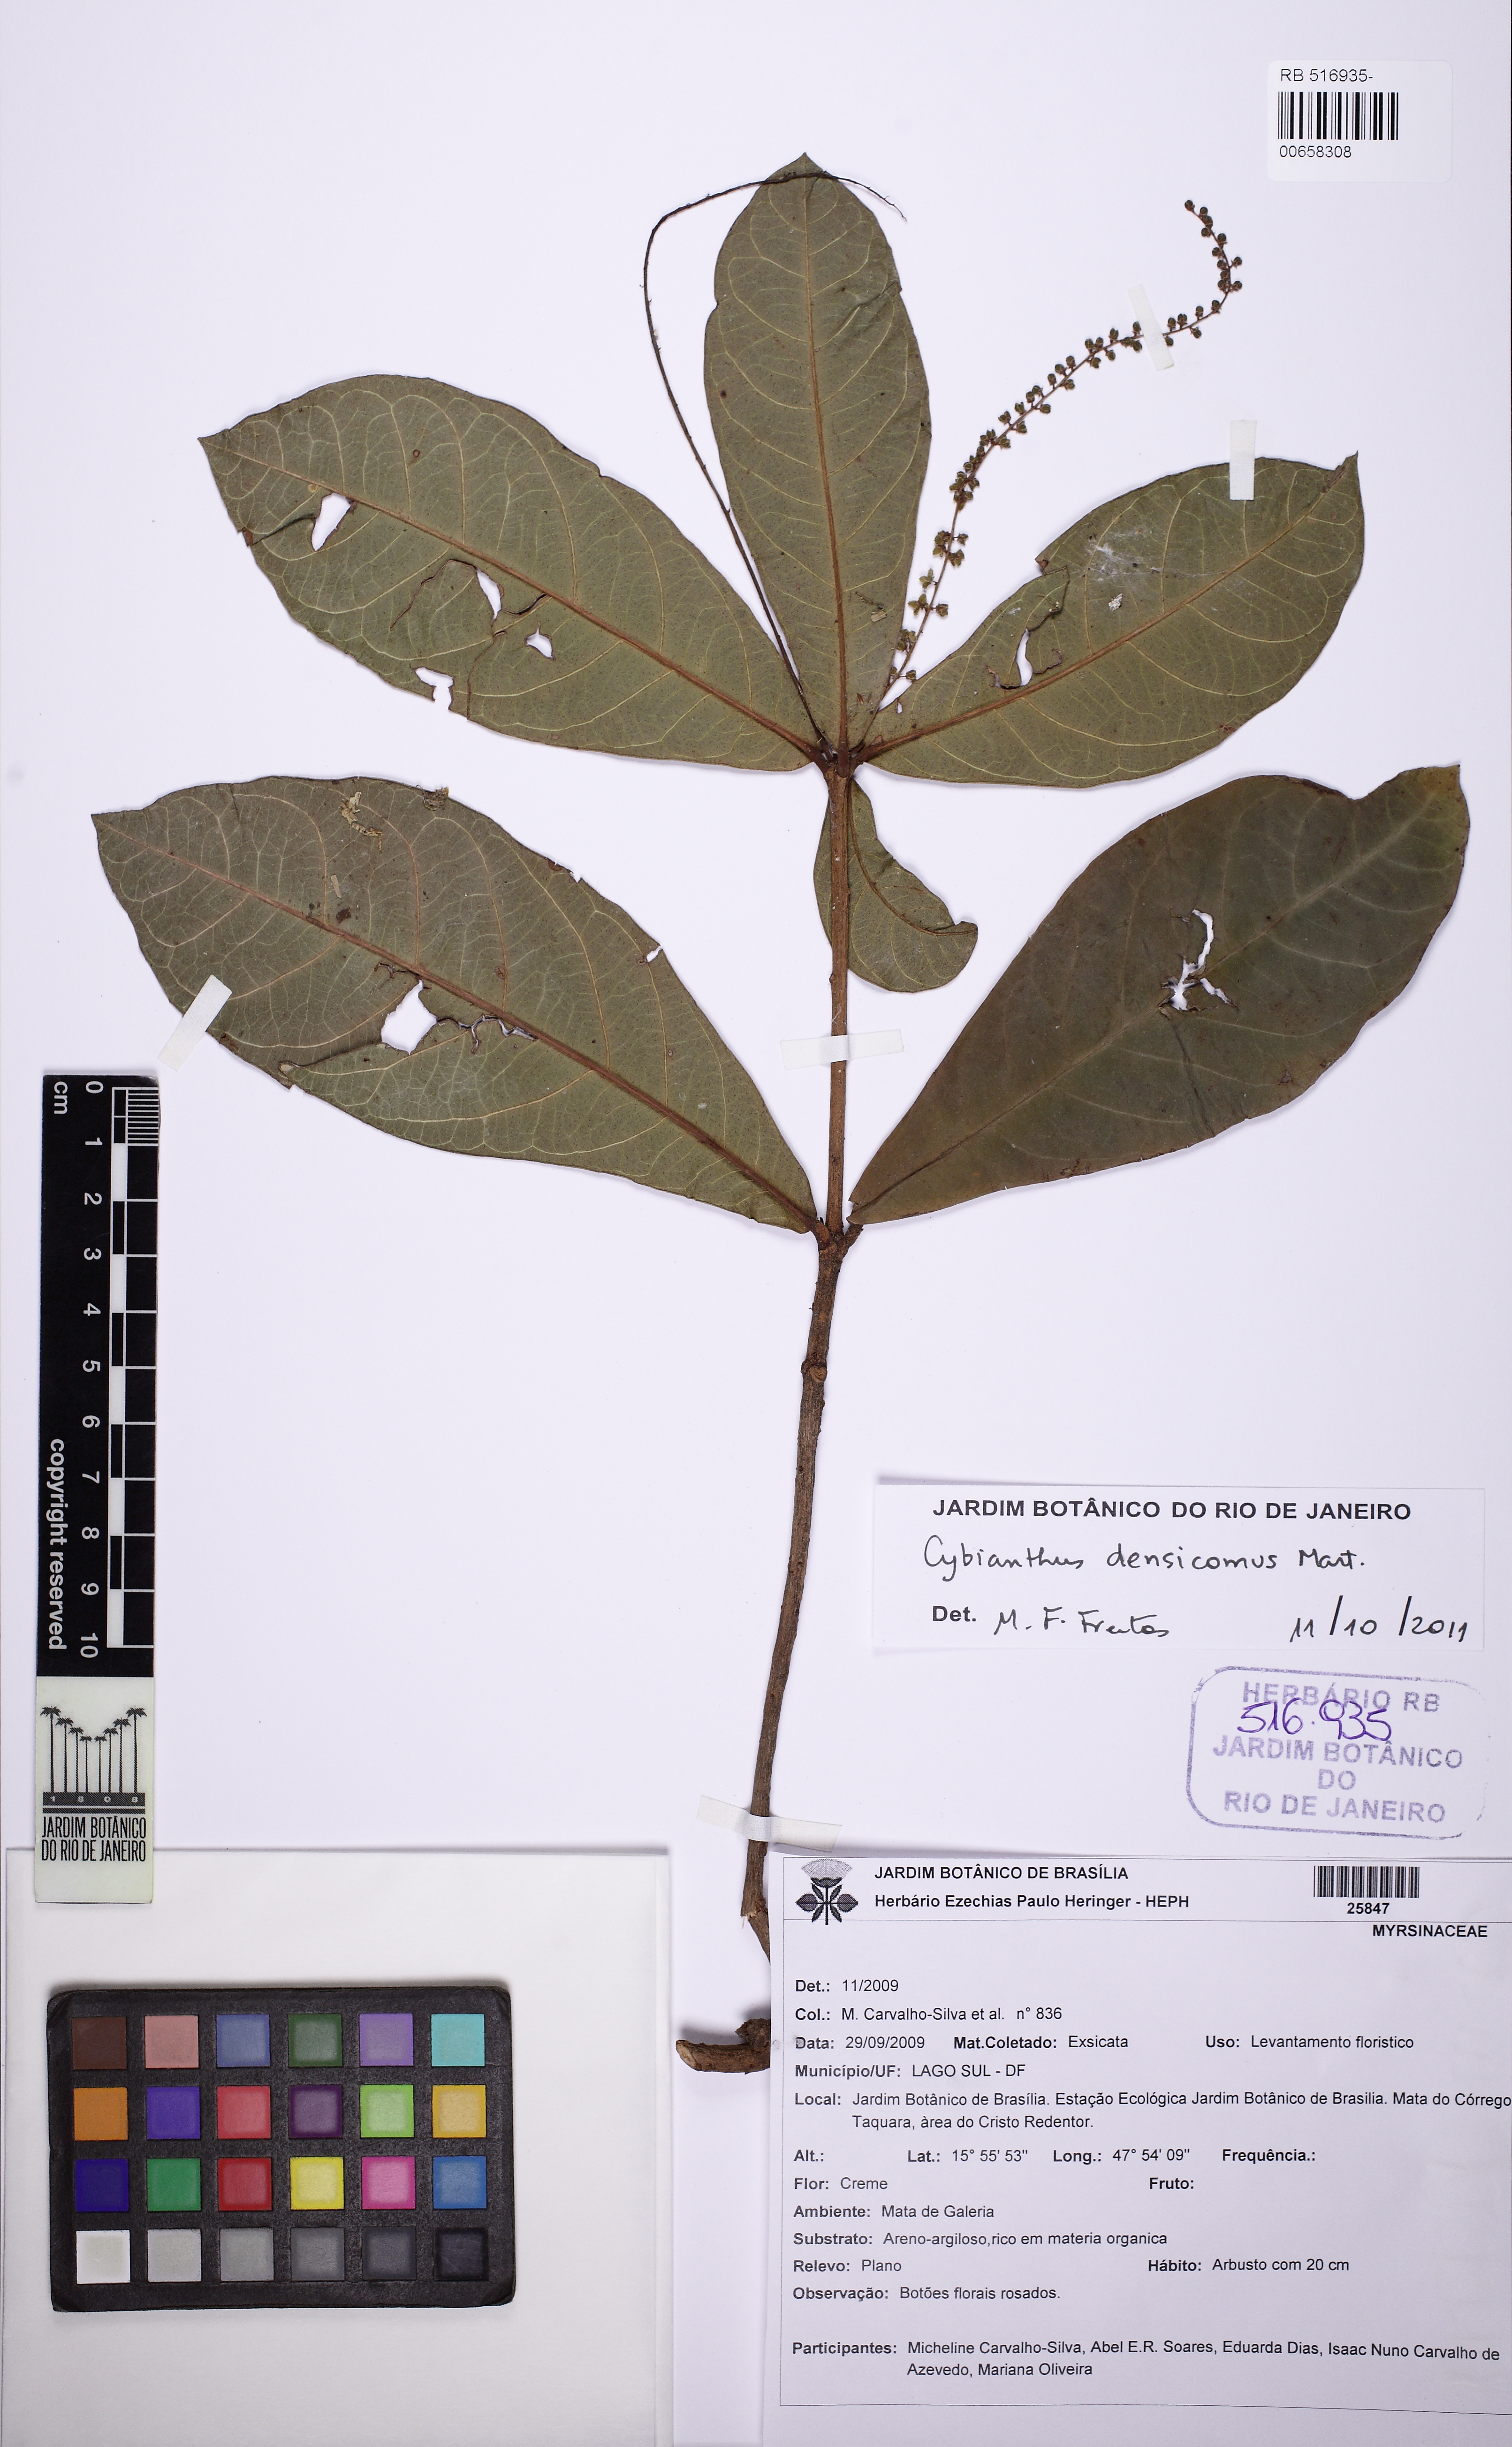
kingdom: Plantae
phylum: Tracheophyta
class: Magnoliopsida
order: Ericales
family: Primulaceae
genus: Cybianthus
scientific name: Cybianthus densicomus
